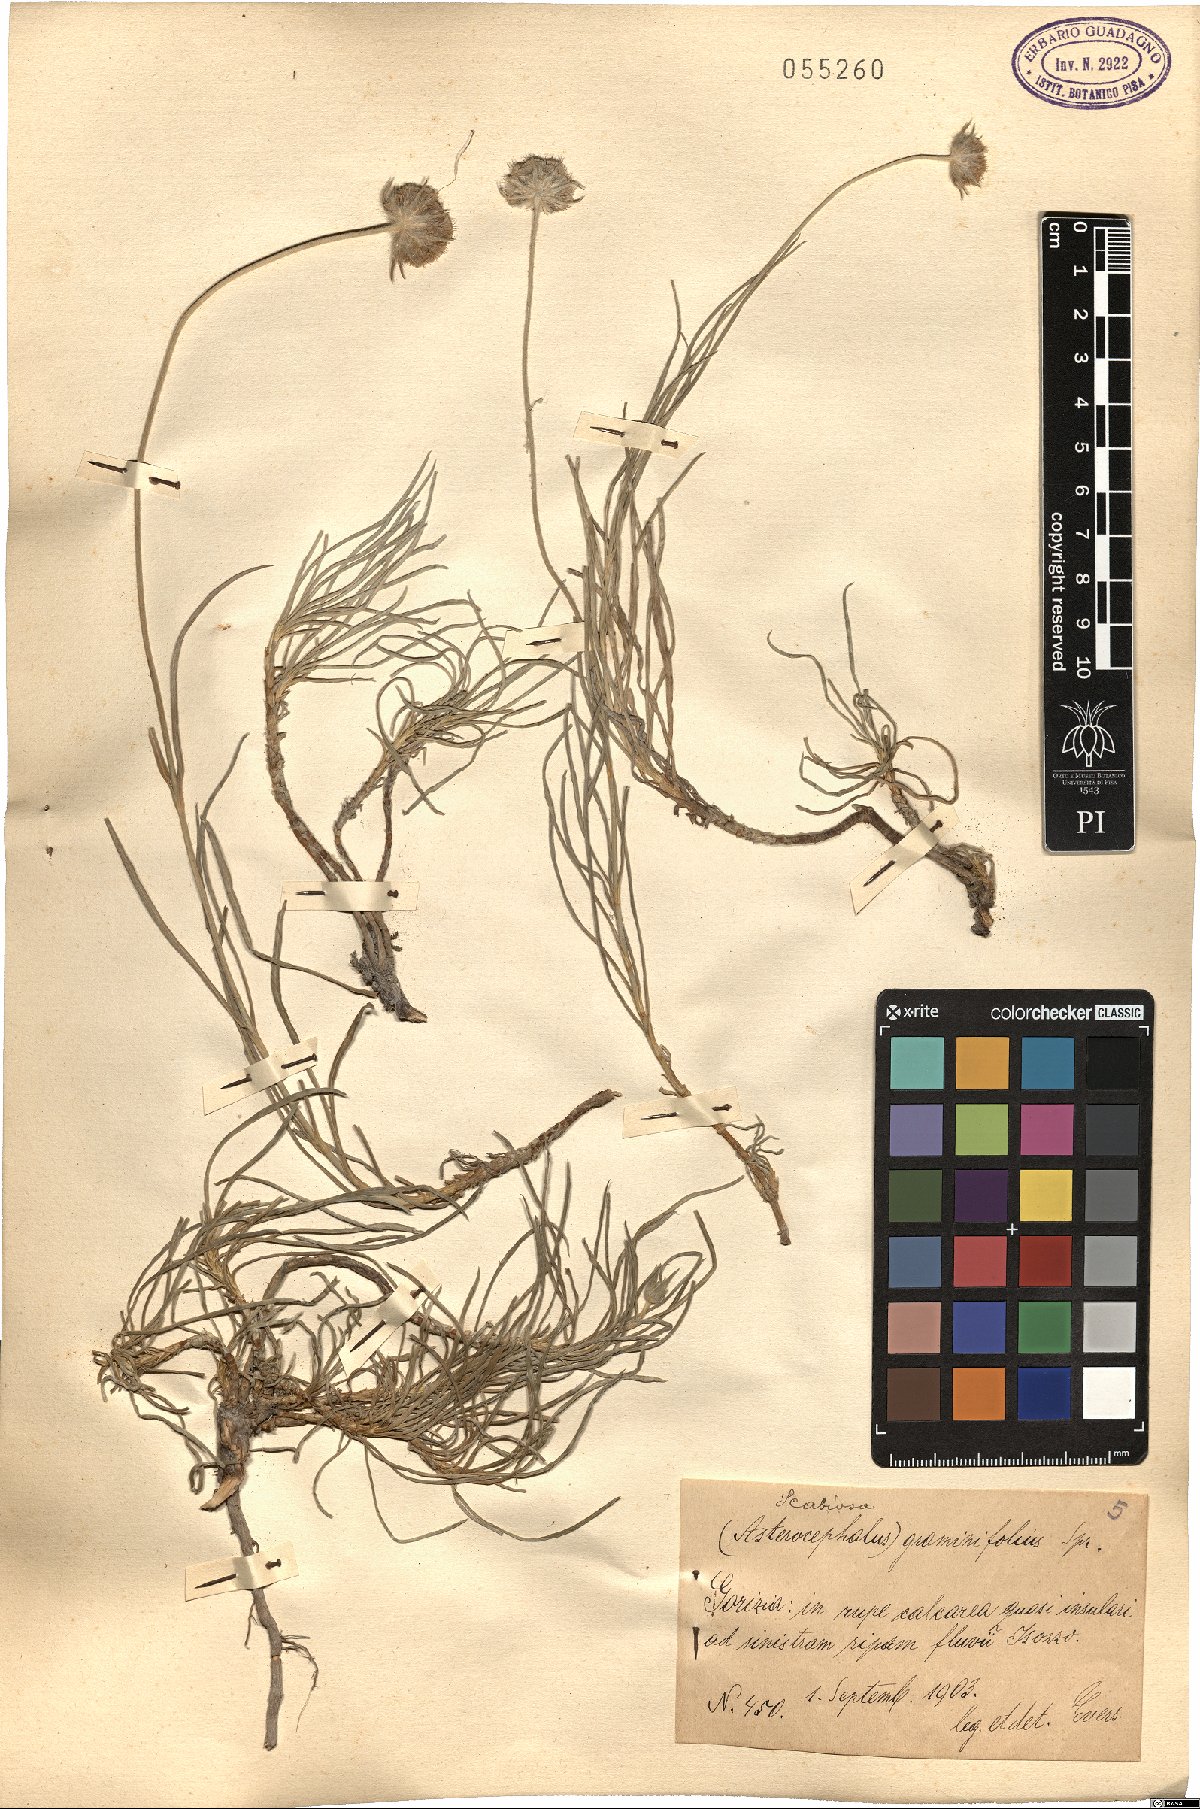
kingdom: Plantae
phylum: Tracheophyta
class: Magnoliopsida
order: Dipsacales
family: Caprifoliaceae
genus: Lomelosia
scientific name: Lomelosia graminifolia
